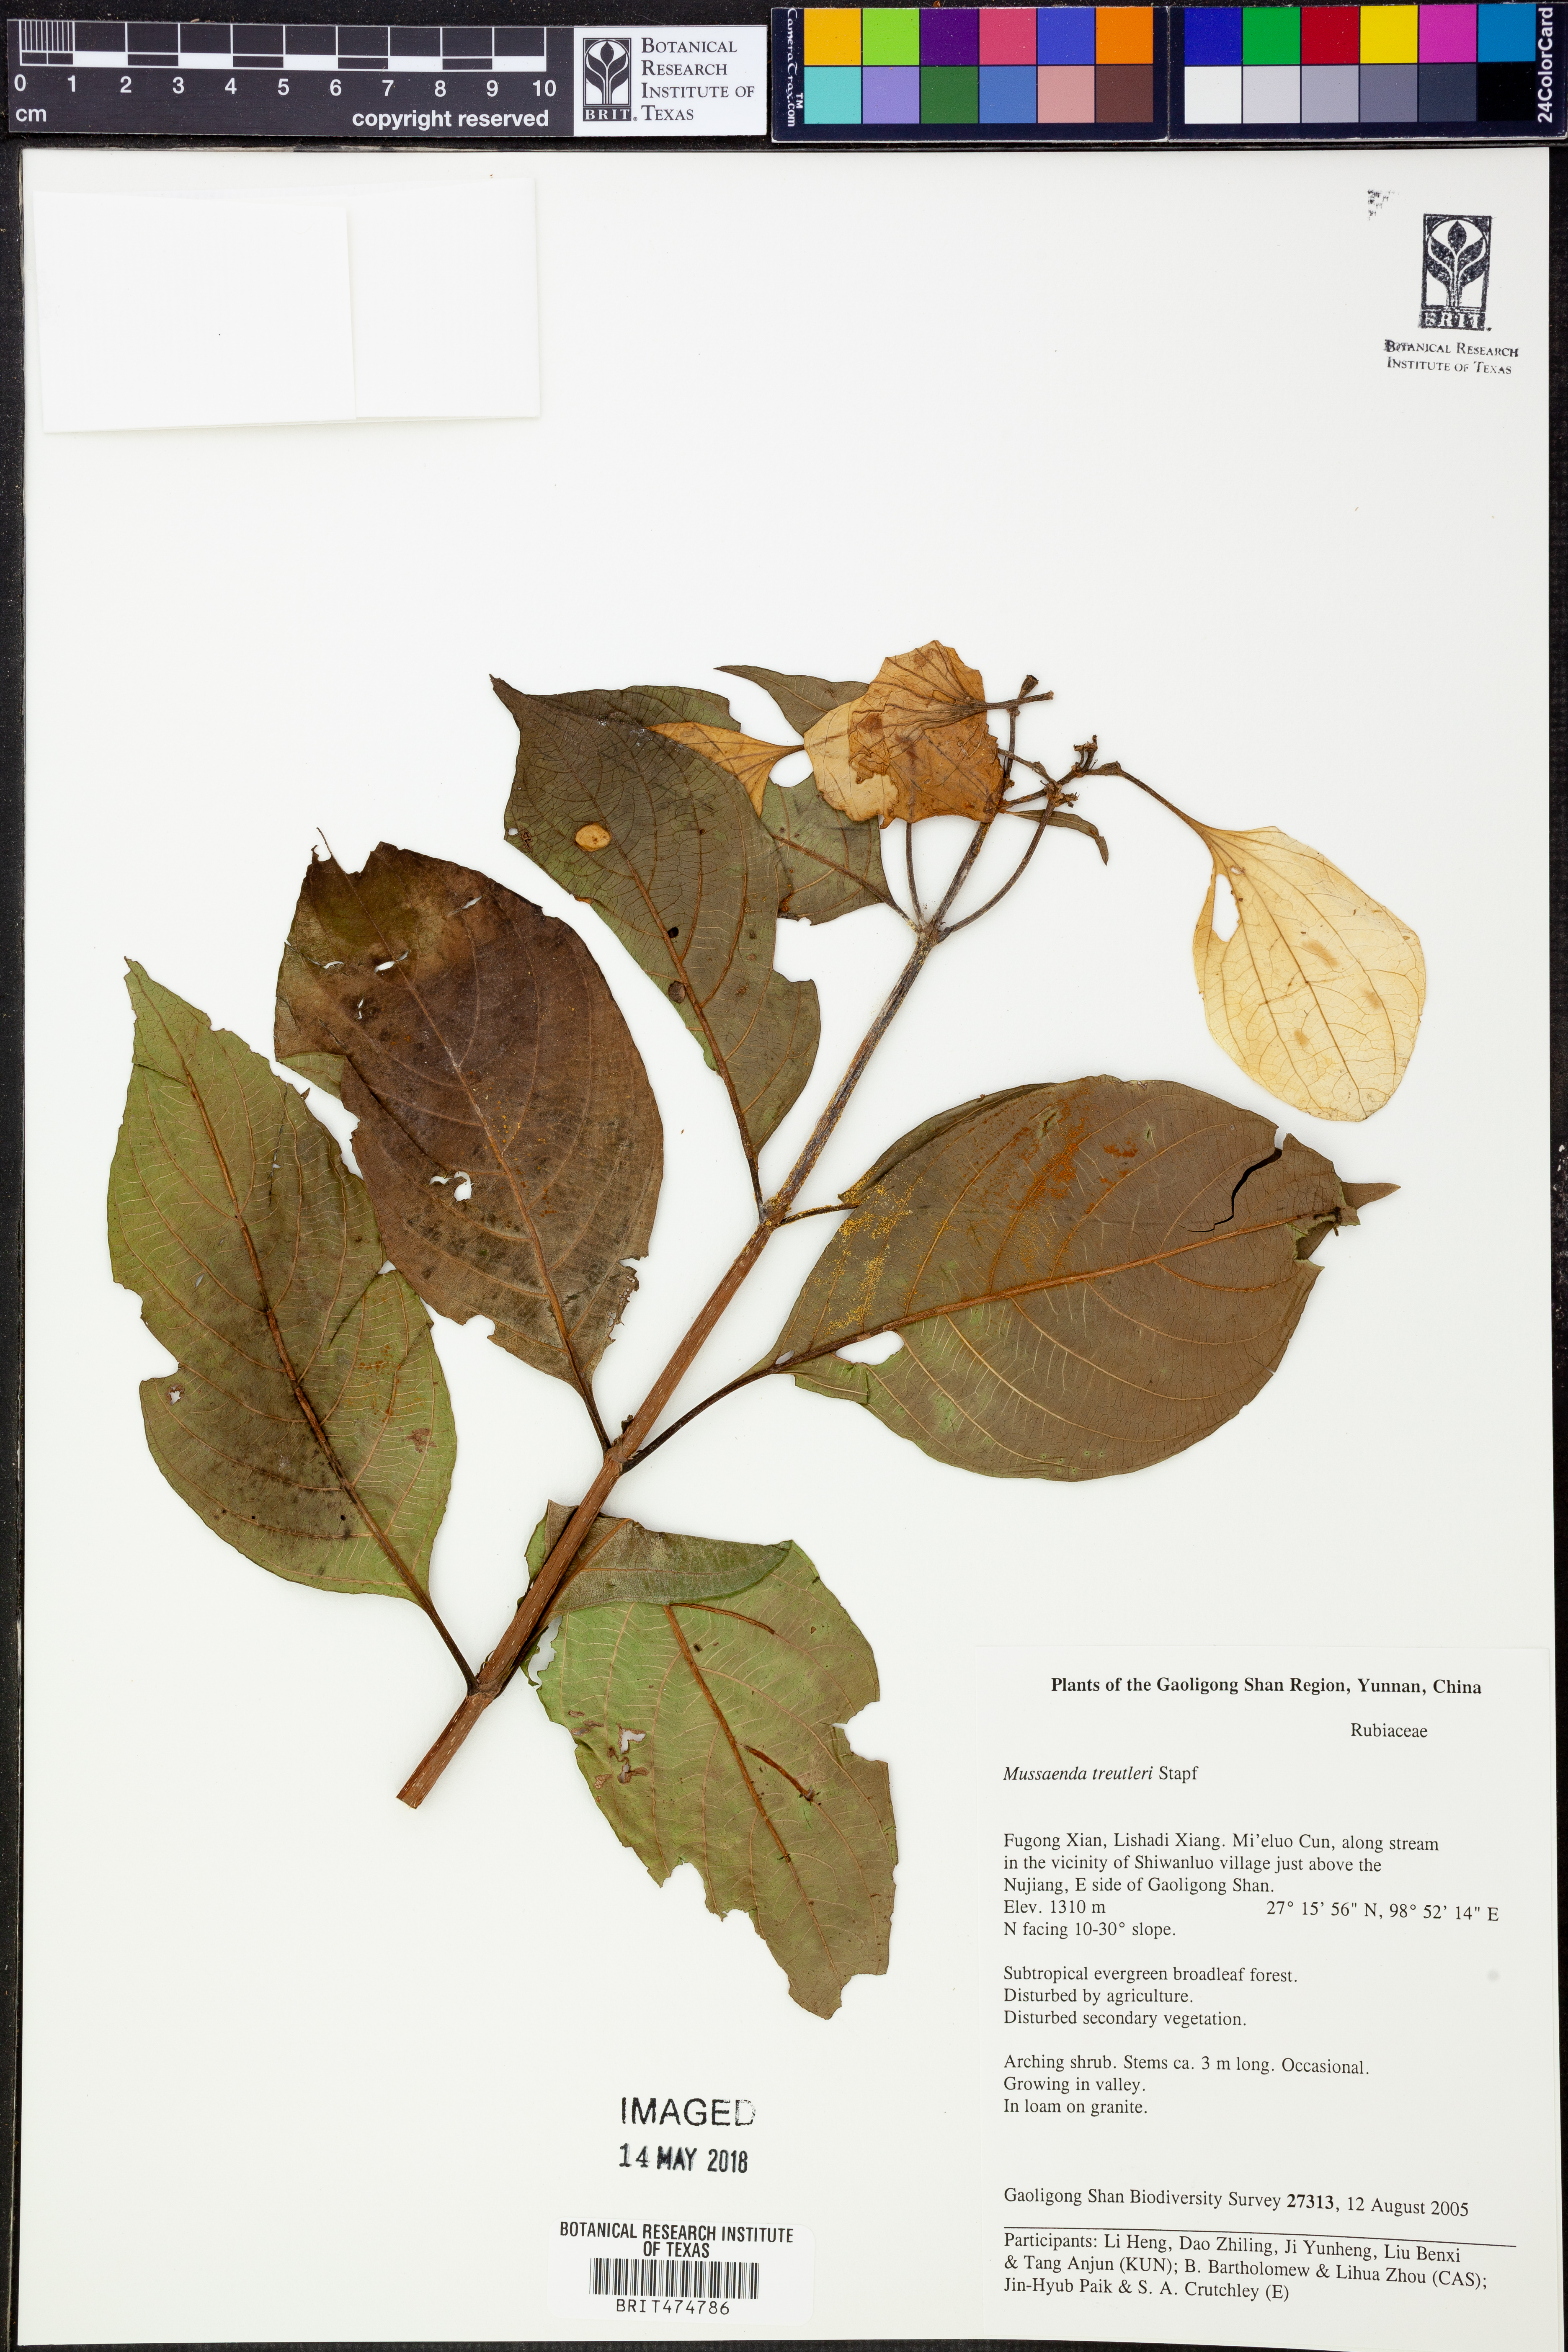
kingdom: Plantae
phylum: Tracheophyta
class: Magnoliopsida
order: Gentianales
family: Rubiaceae
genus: Mussaenda
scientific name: Mussaenda treutleri
